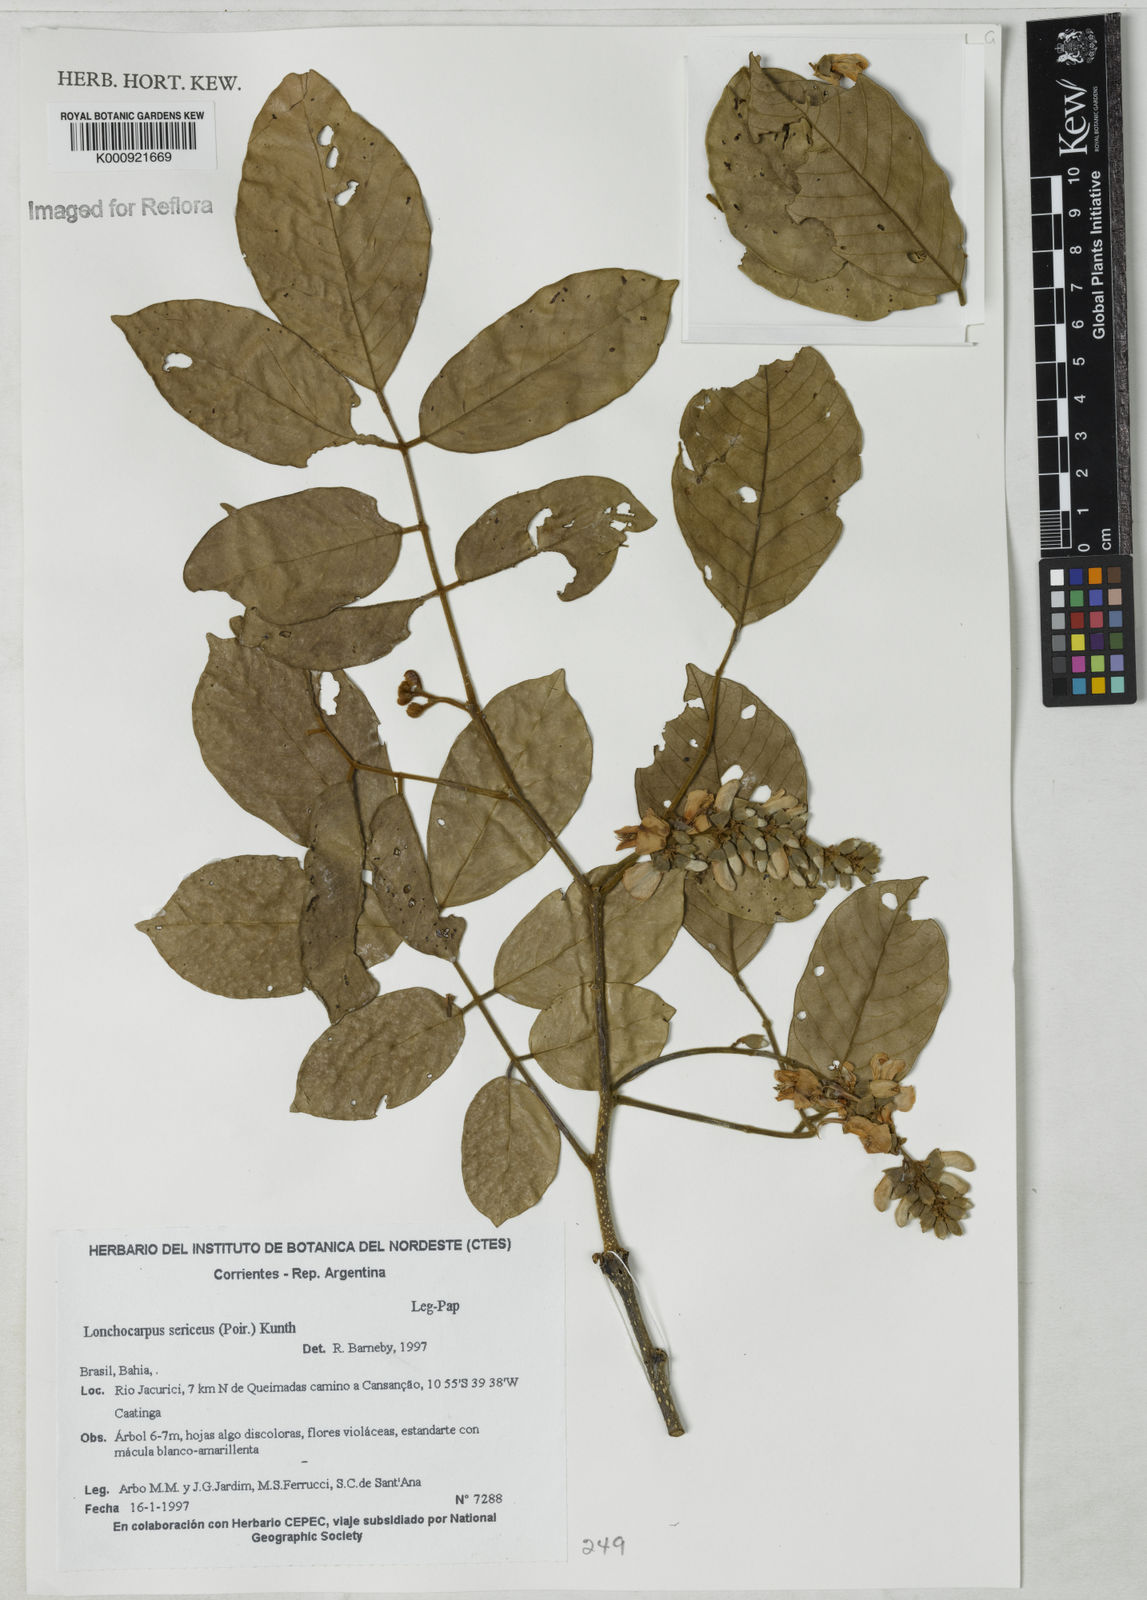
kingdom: Plantae
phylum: Tracheophyta
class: Magnoliopsida
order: Fabales
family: Fabaceae
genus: Lonchocarpus
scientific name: Lonchocarpus
